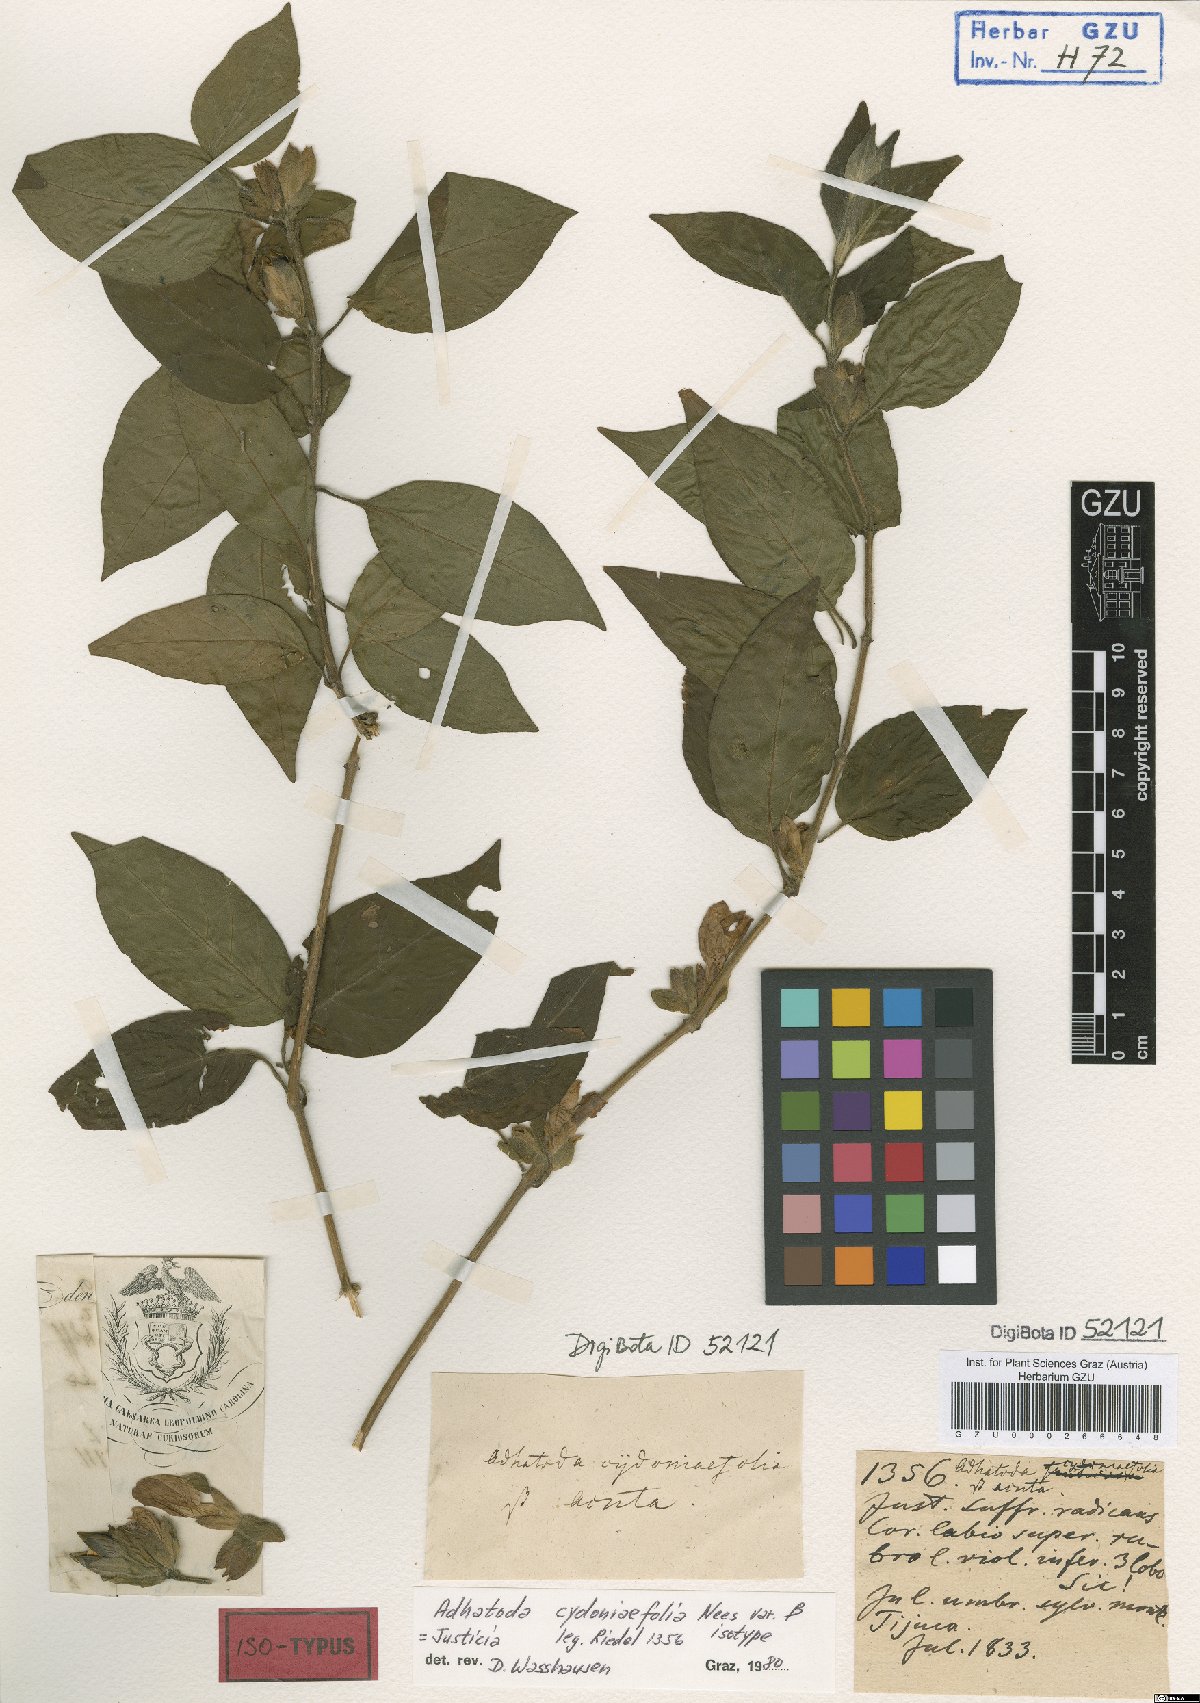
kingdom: Plantae
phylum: Tracheophyta
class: Magnoliopsida
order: Lamiales
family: Acanthaceae
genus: Justicia
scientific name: Justicia cydoniifolia
